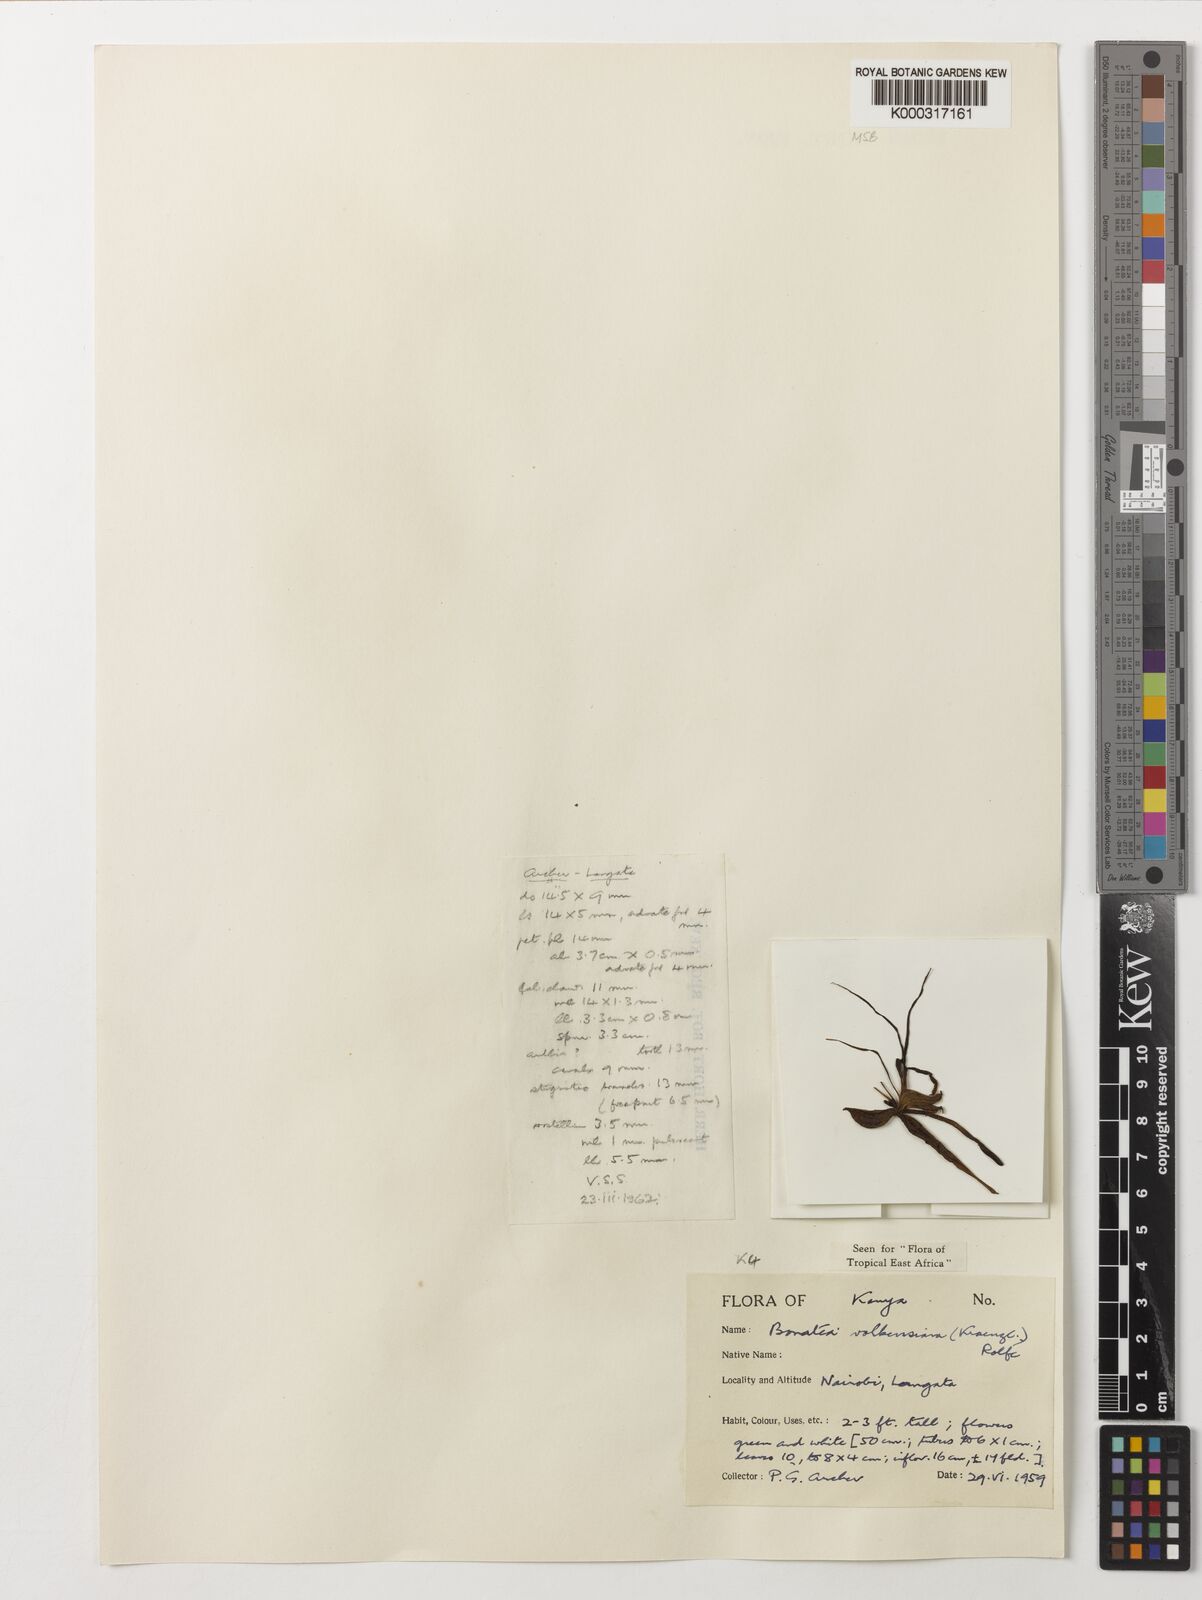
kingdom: Plantae
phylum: Tracheophyta
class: Liliopsida
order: Asparagales
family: Orchidaceae
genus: Bonatea
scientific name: Bonatea volkensiana
